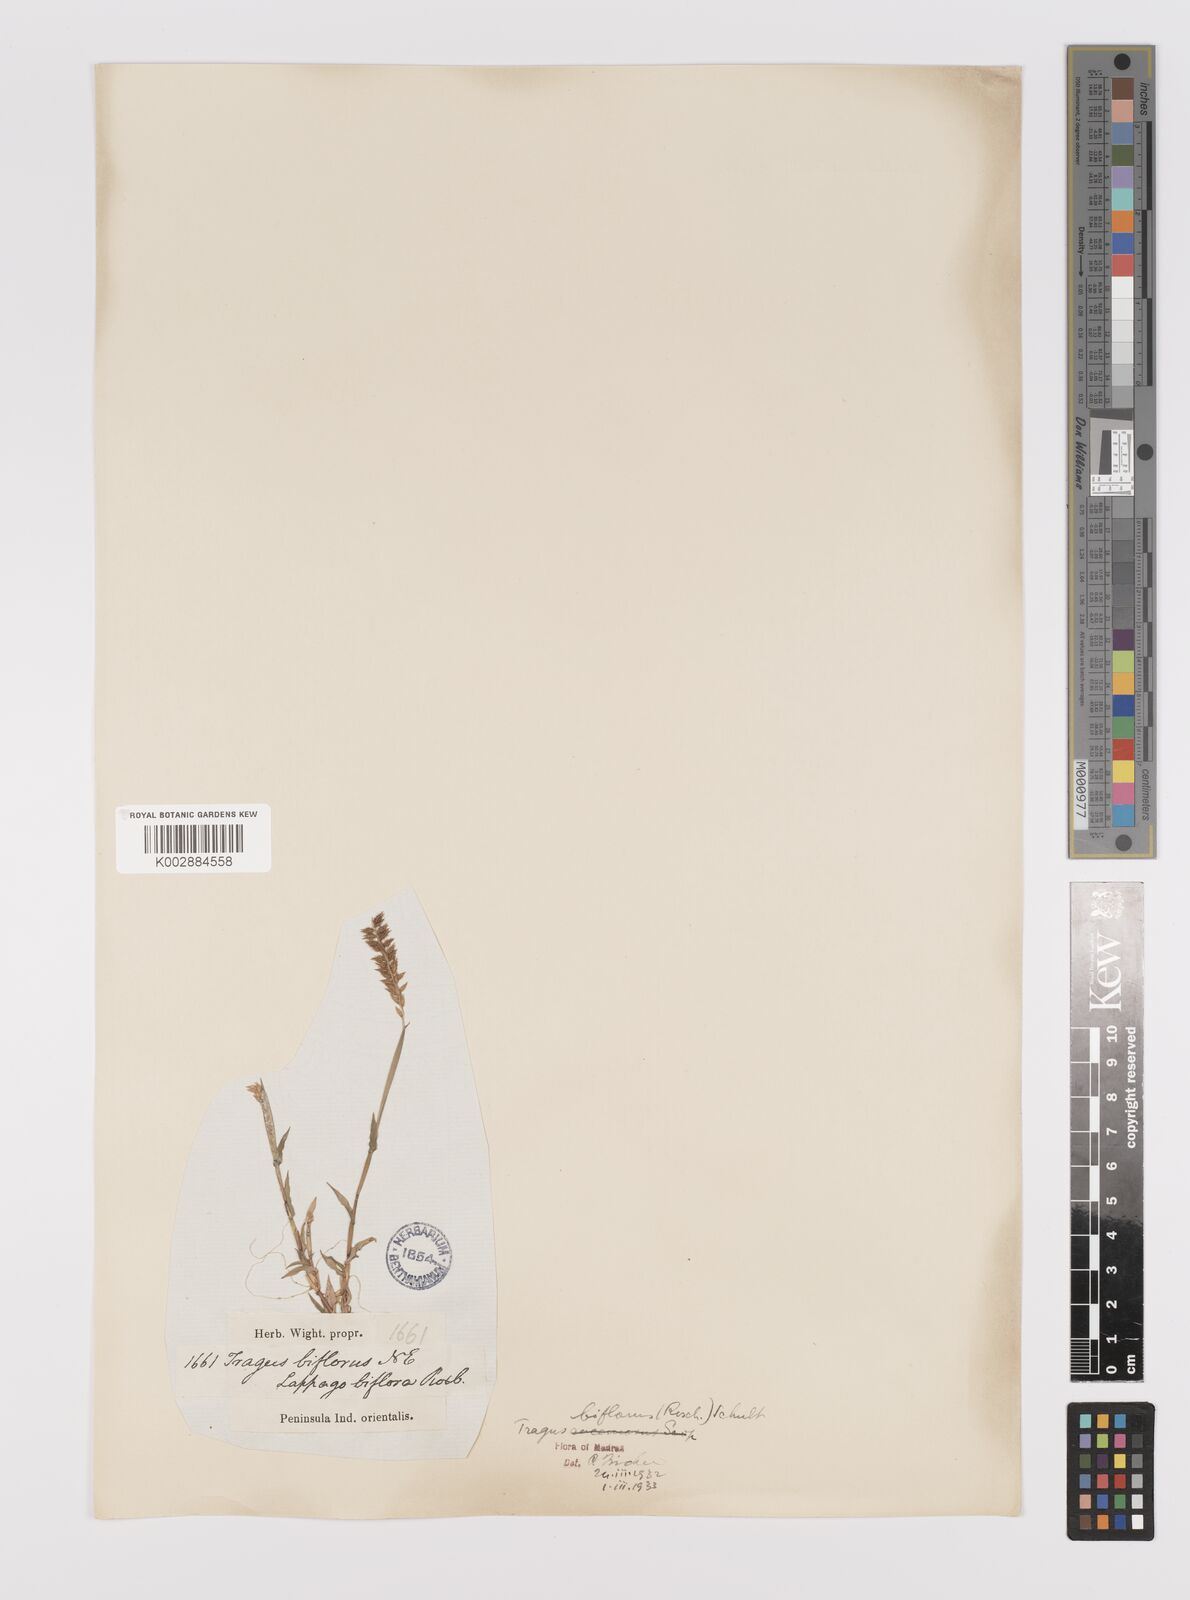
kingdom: Plantae
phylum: Tracheophyta
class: Liliopsida
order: Poales
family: Poaceae
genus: Tragus
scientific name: Tragus mongolorum
